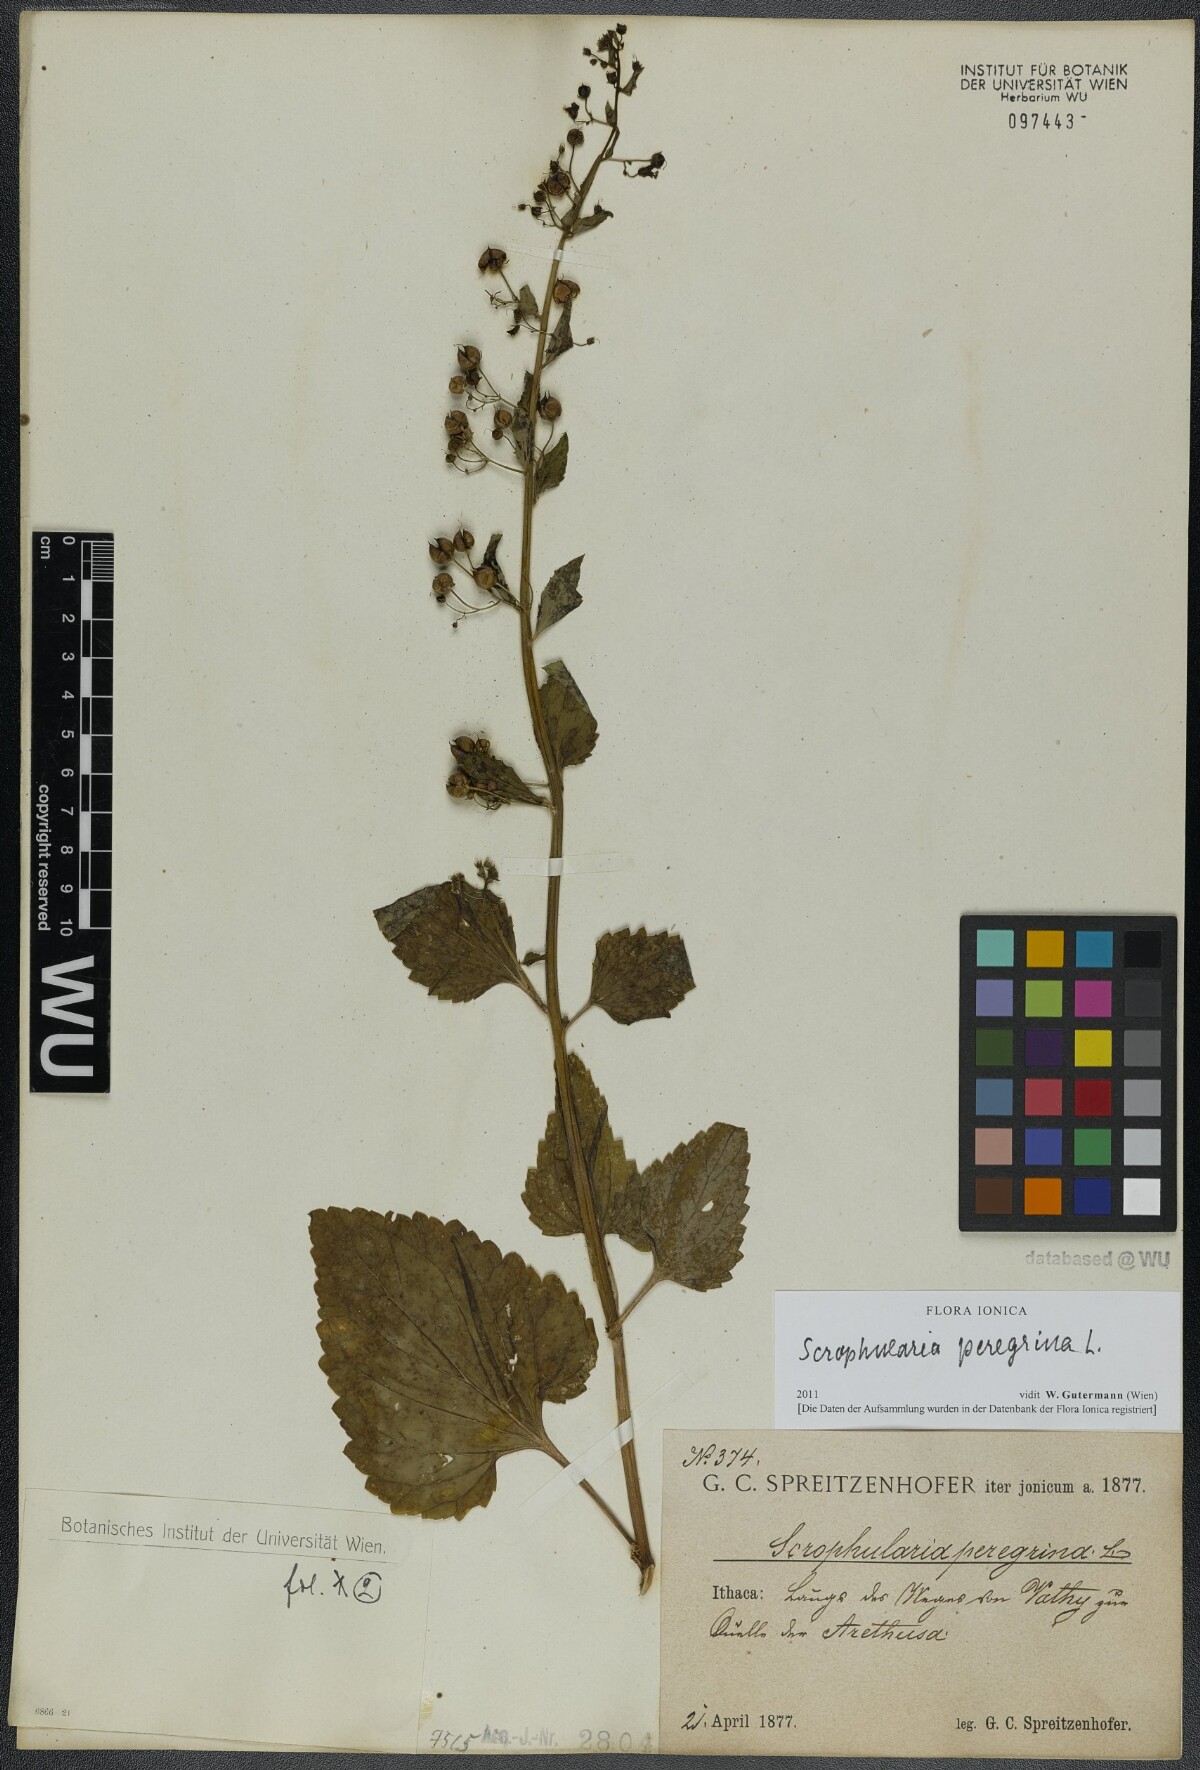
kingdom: Plantae
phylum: Tracheophyta
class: Magnoliopsida
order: Lamiales
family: Scrophulariaceae
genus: Scrophularia
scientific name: Scrophularia peregrina
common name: Mediterranean figwort
